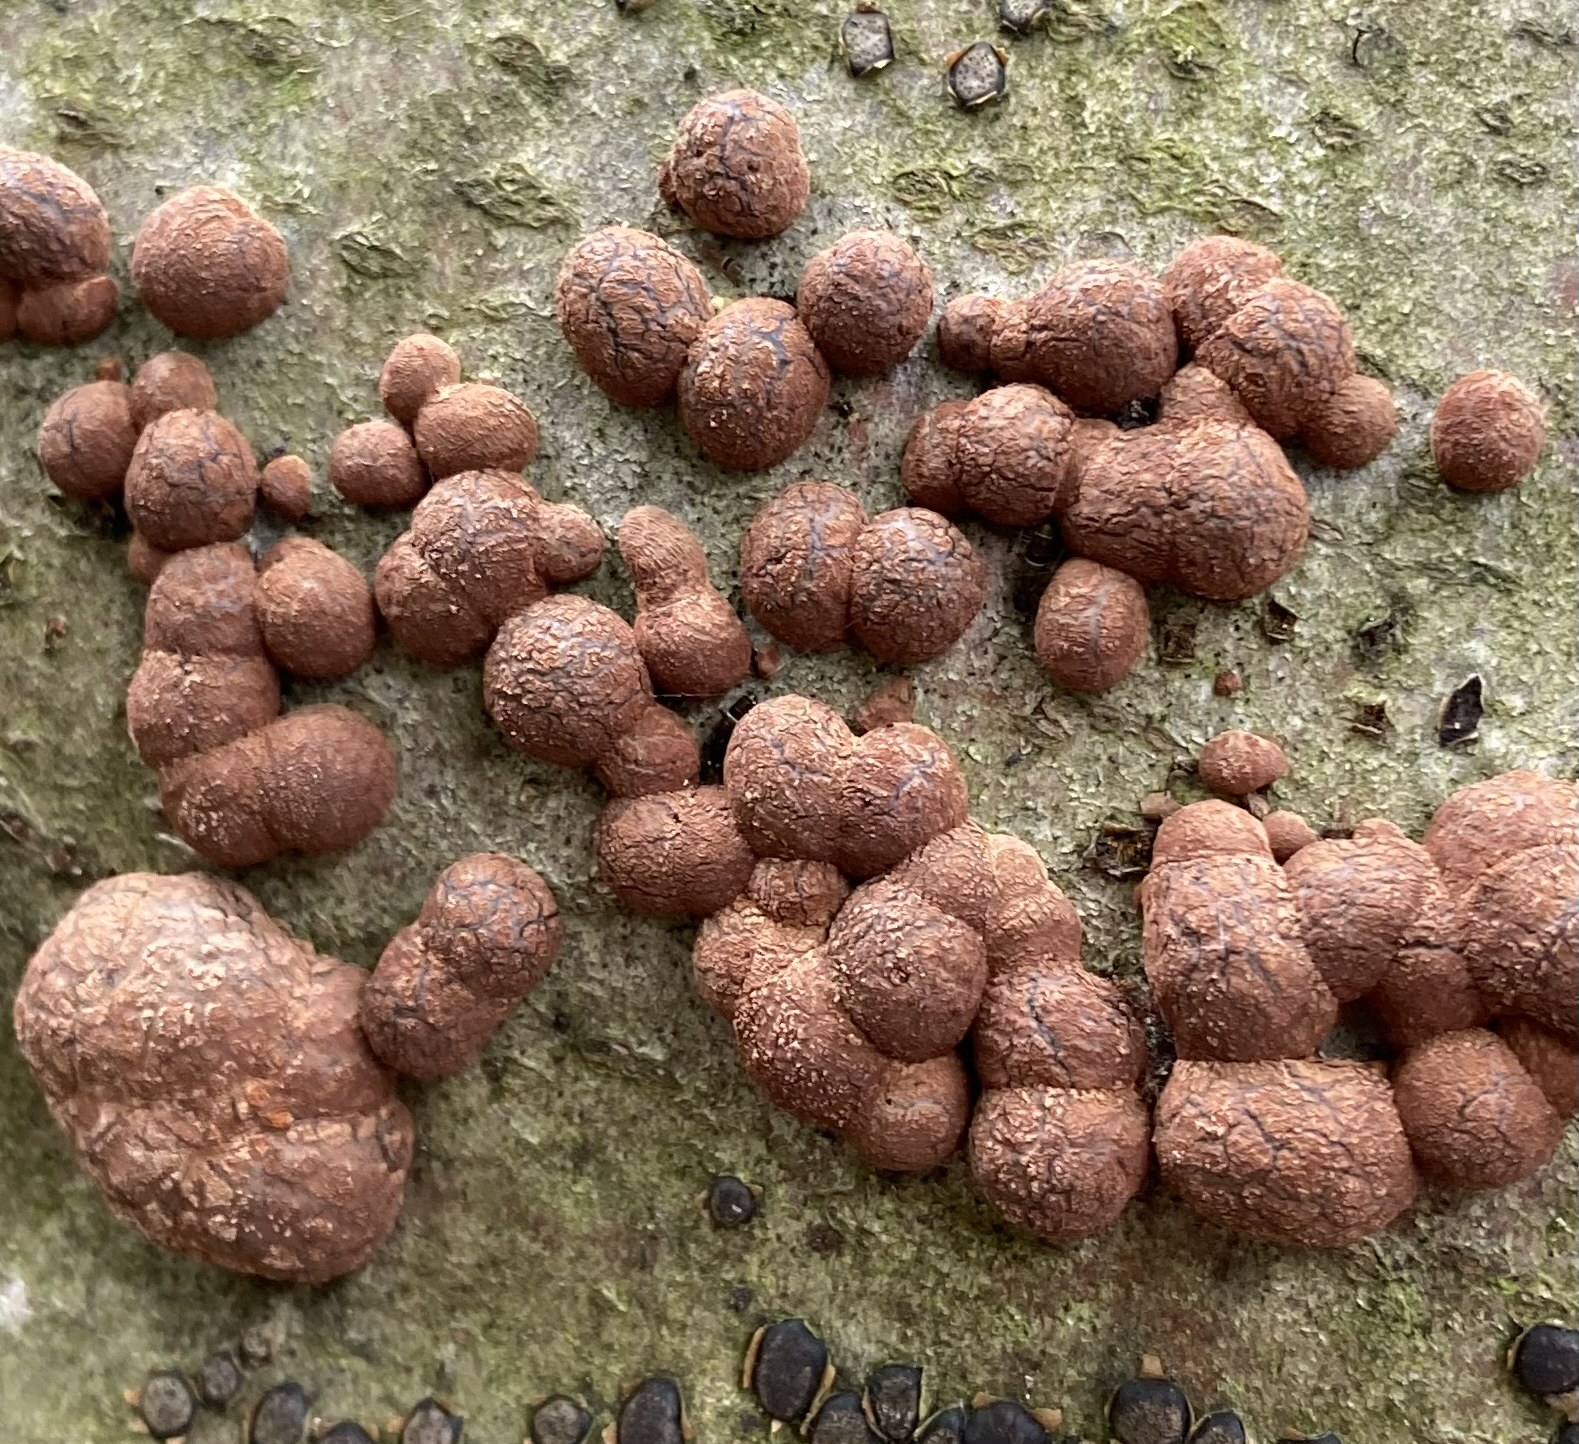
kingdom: Fungi
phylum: Ascomycota
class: Sordariomycetes
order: Xylariales
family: Hypoxylaceae
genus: Hypoxylon
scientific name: Hypoxylon fragiforme
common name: kuljordbær
